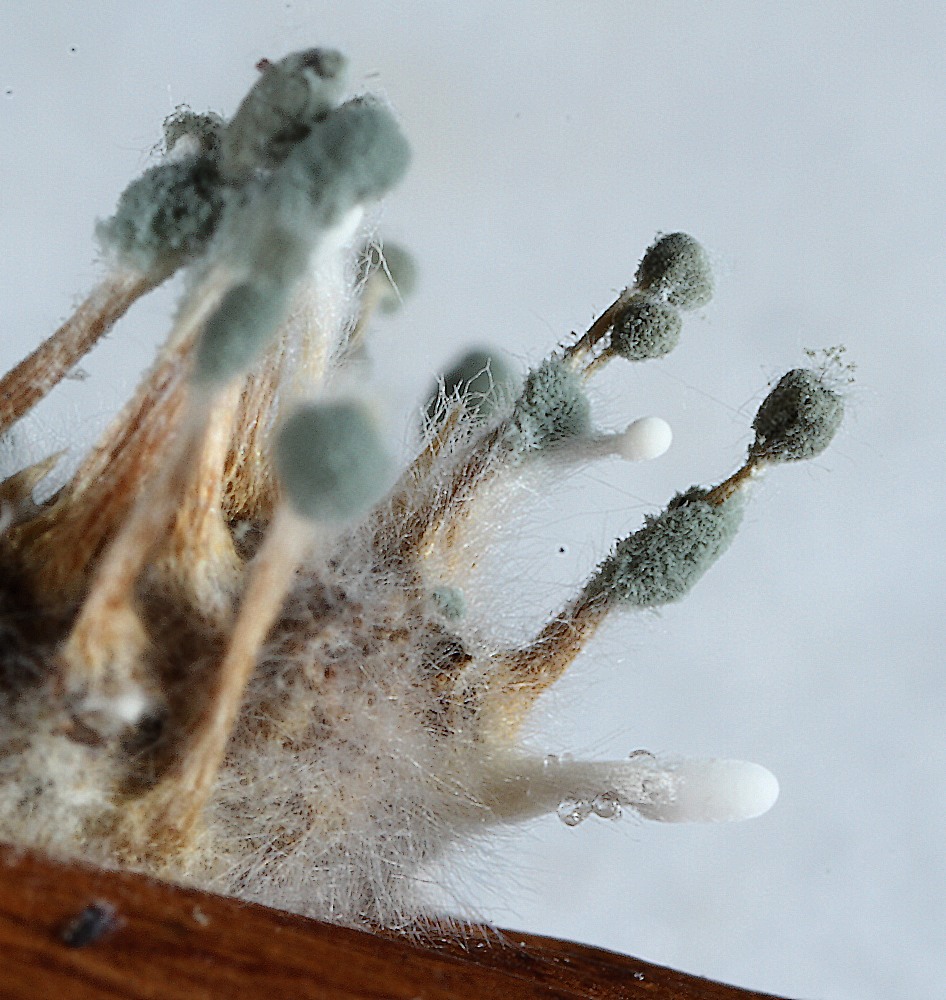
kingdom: Fungi
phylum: Ascomycota
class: Eurotiomycetes
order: Eurotiales
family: Aspergillaceae
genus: Penicillium
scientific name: Penicillium vulpinum
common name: kølle-penselskimmel
